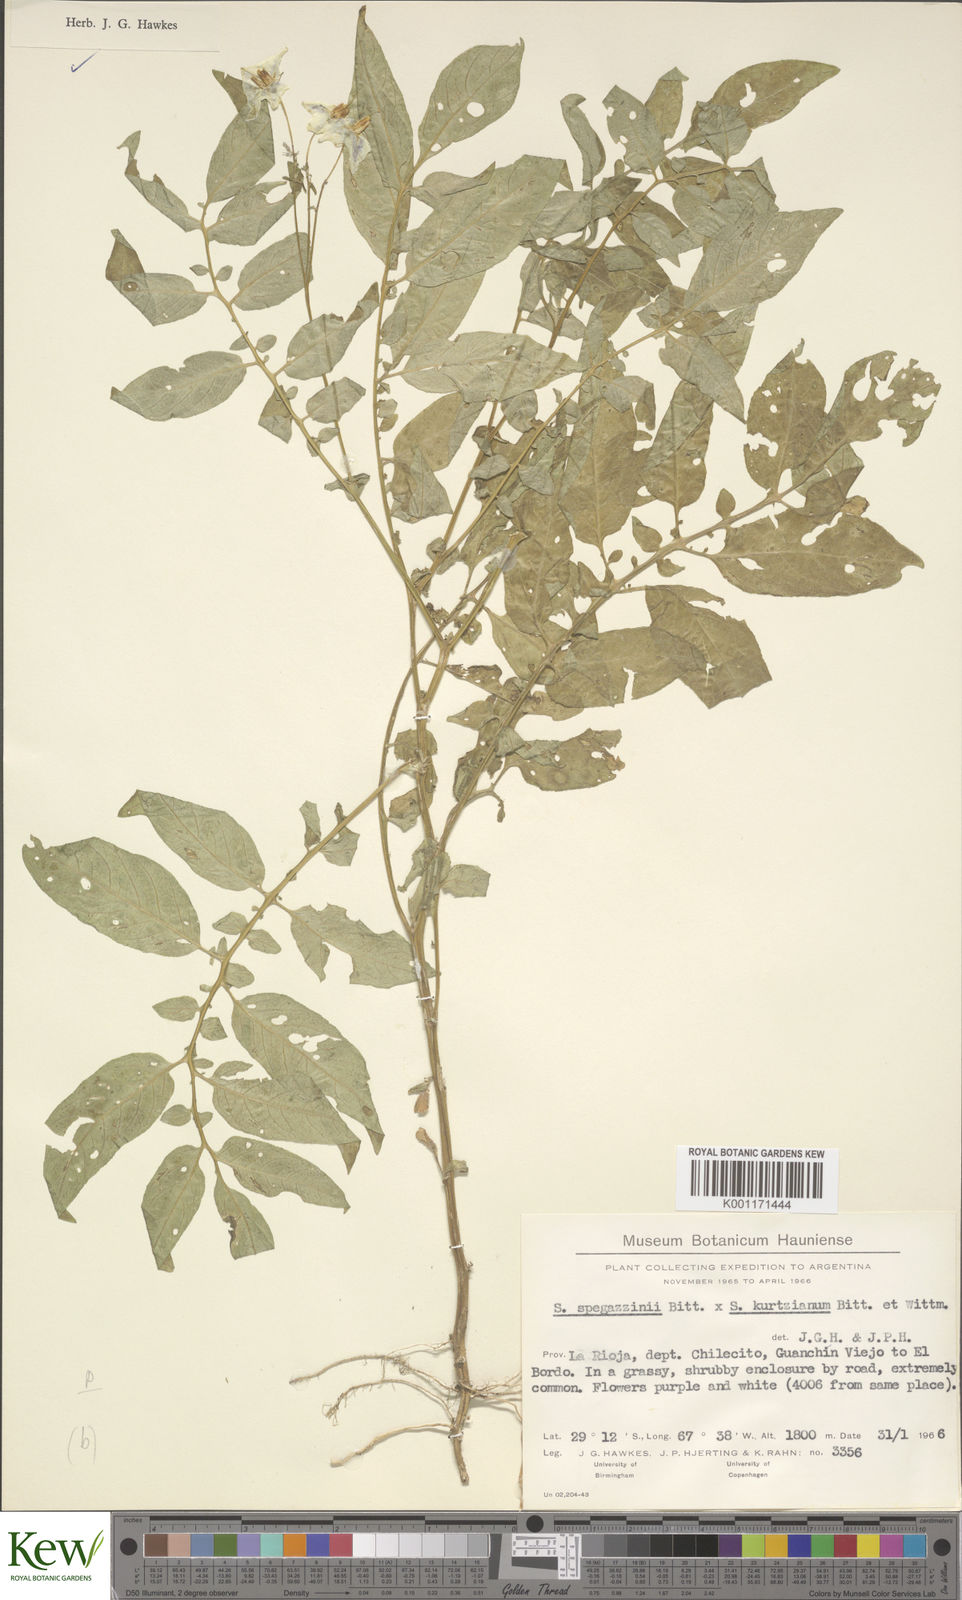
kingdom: Plantae
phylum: Tracheophyta
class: Magnoliopsida
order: Solanales
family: Solanaceae
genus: Solanum
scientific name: Solanum brevicaule
